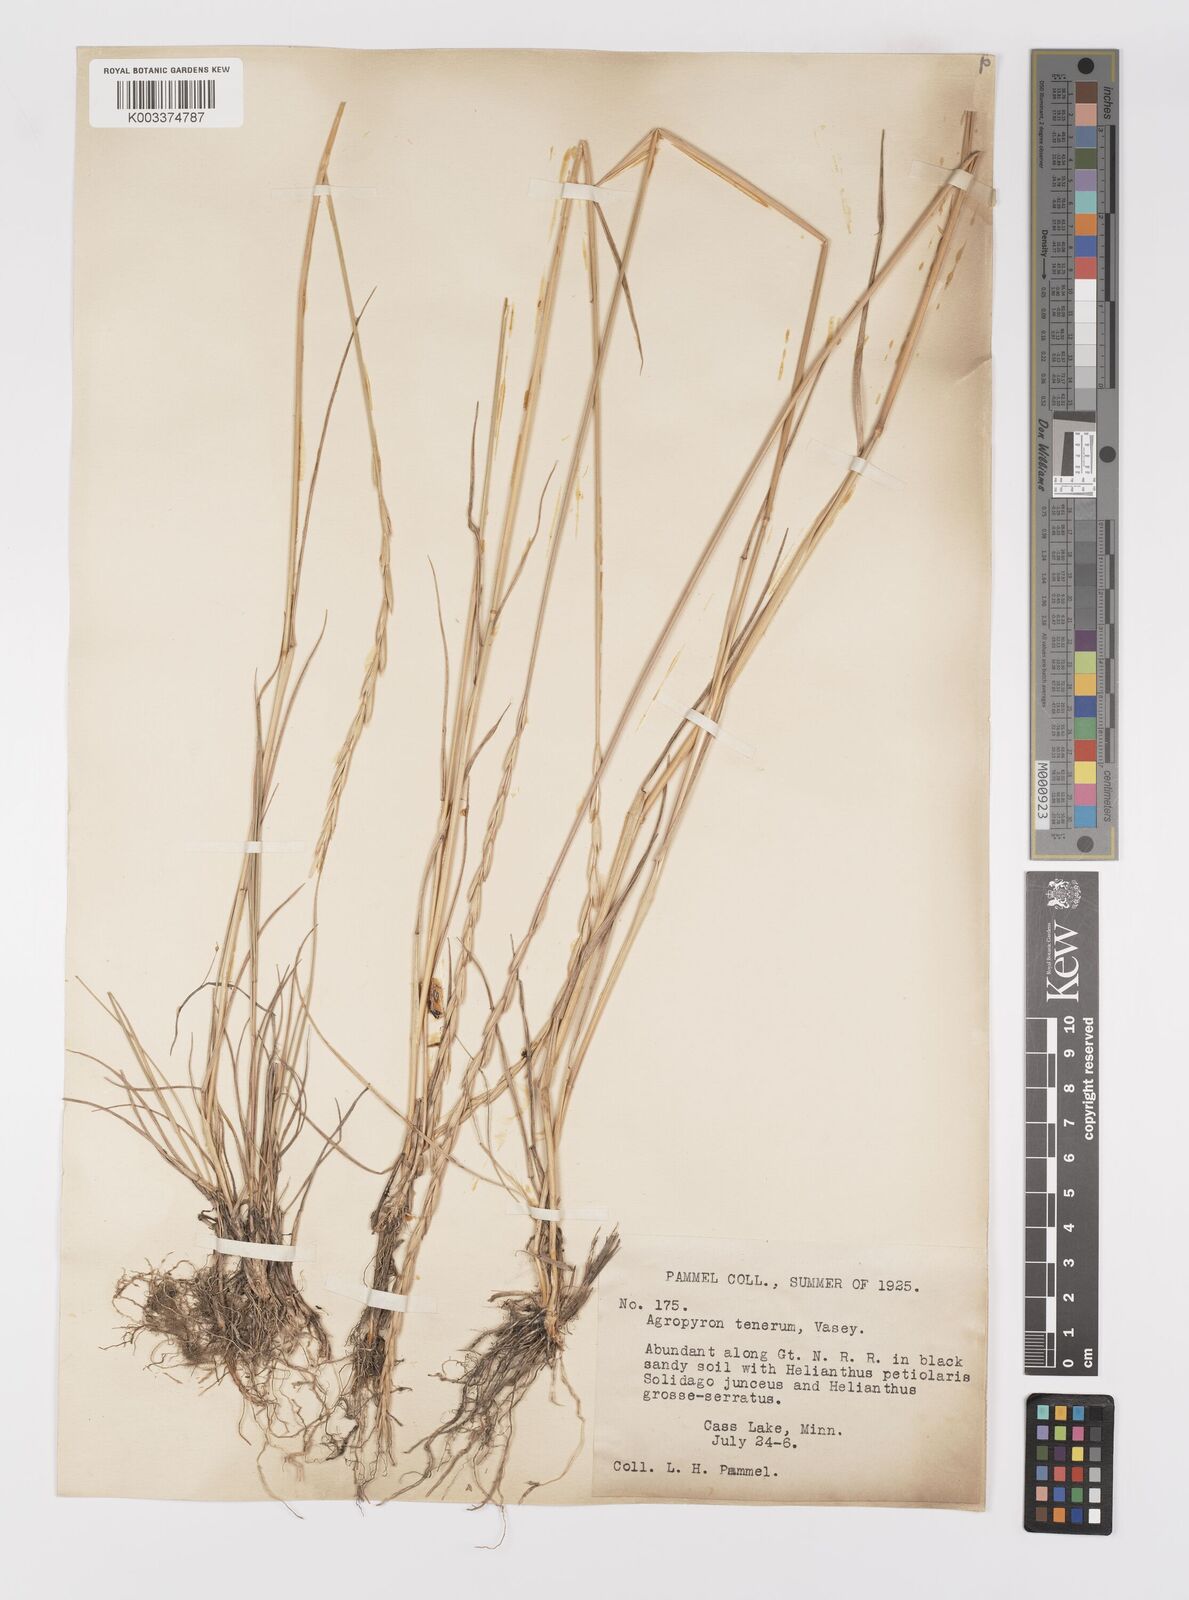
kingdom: Plantae
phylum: Tracheophyta
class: Liliopsida
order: Poales
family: Poaceae
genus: Elymus
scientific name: Elymus violaceus
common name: Arctic wheatgrass
